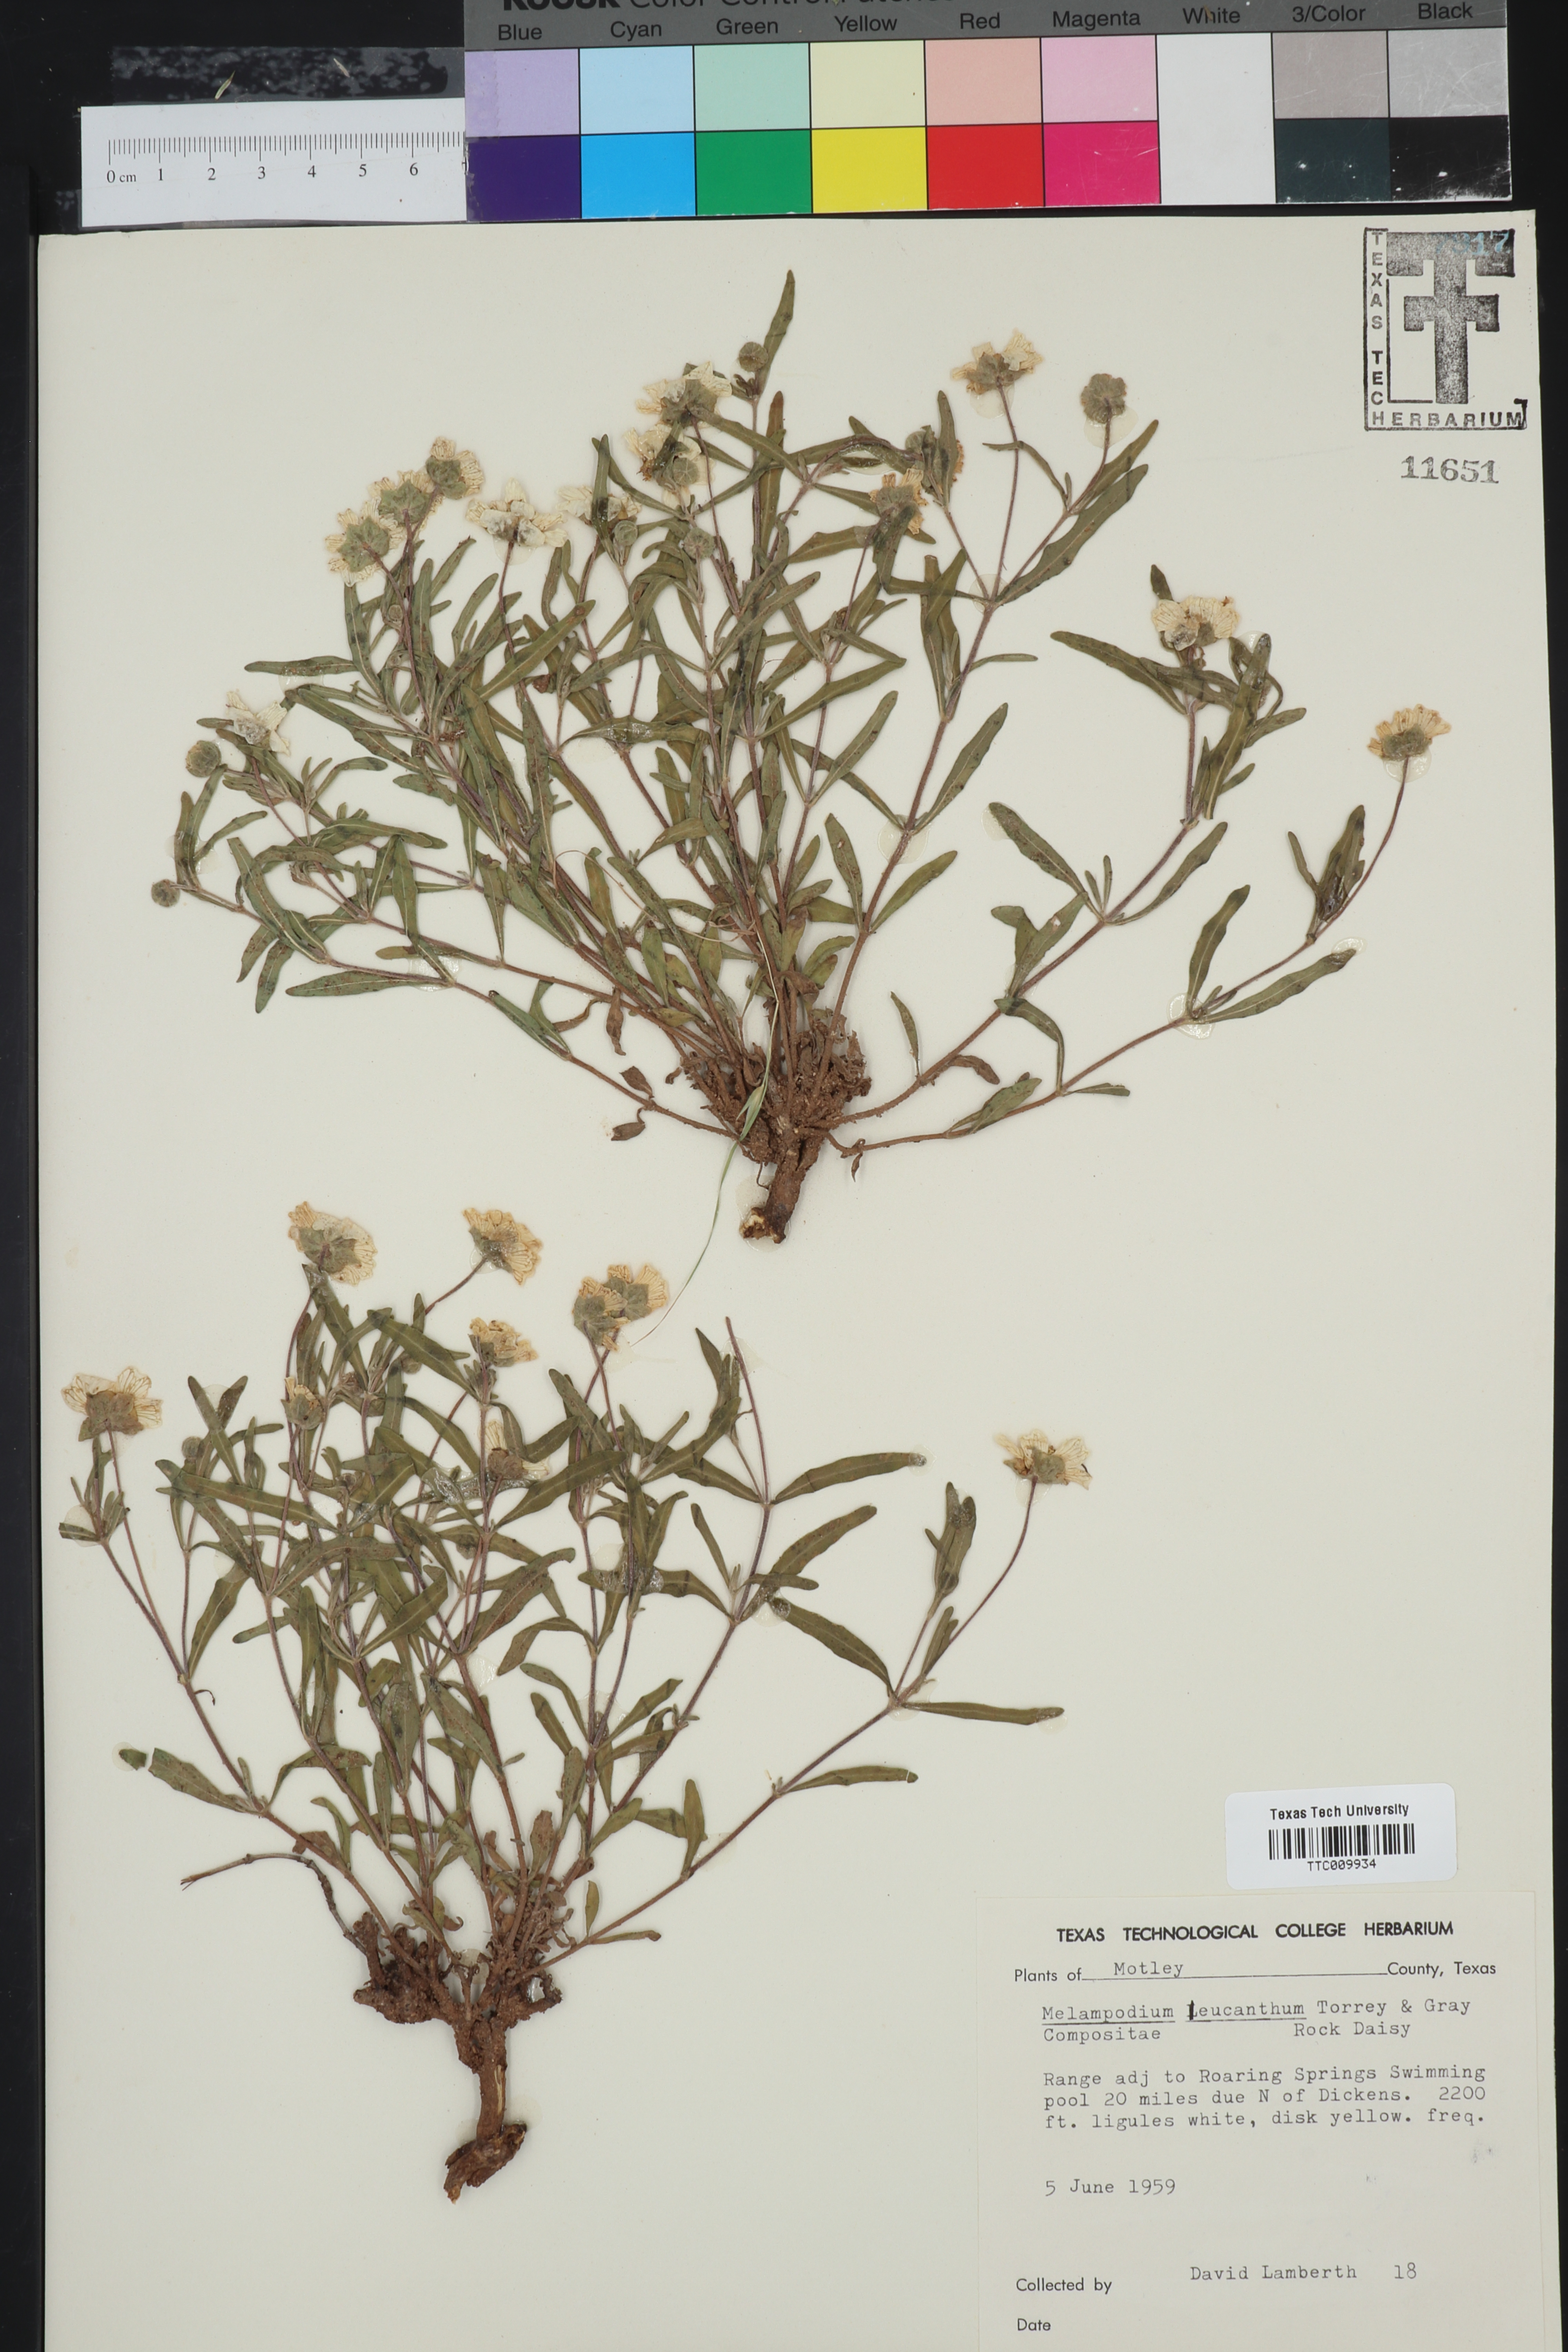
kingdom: Plantae
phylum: Tracheophyta
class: Magnoliopsida
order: Asterales
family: Asteraceae
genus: Melampodium
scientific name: Melampodium leucanthum
